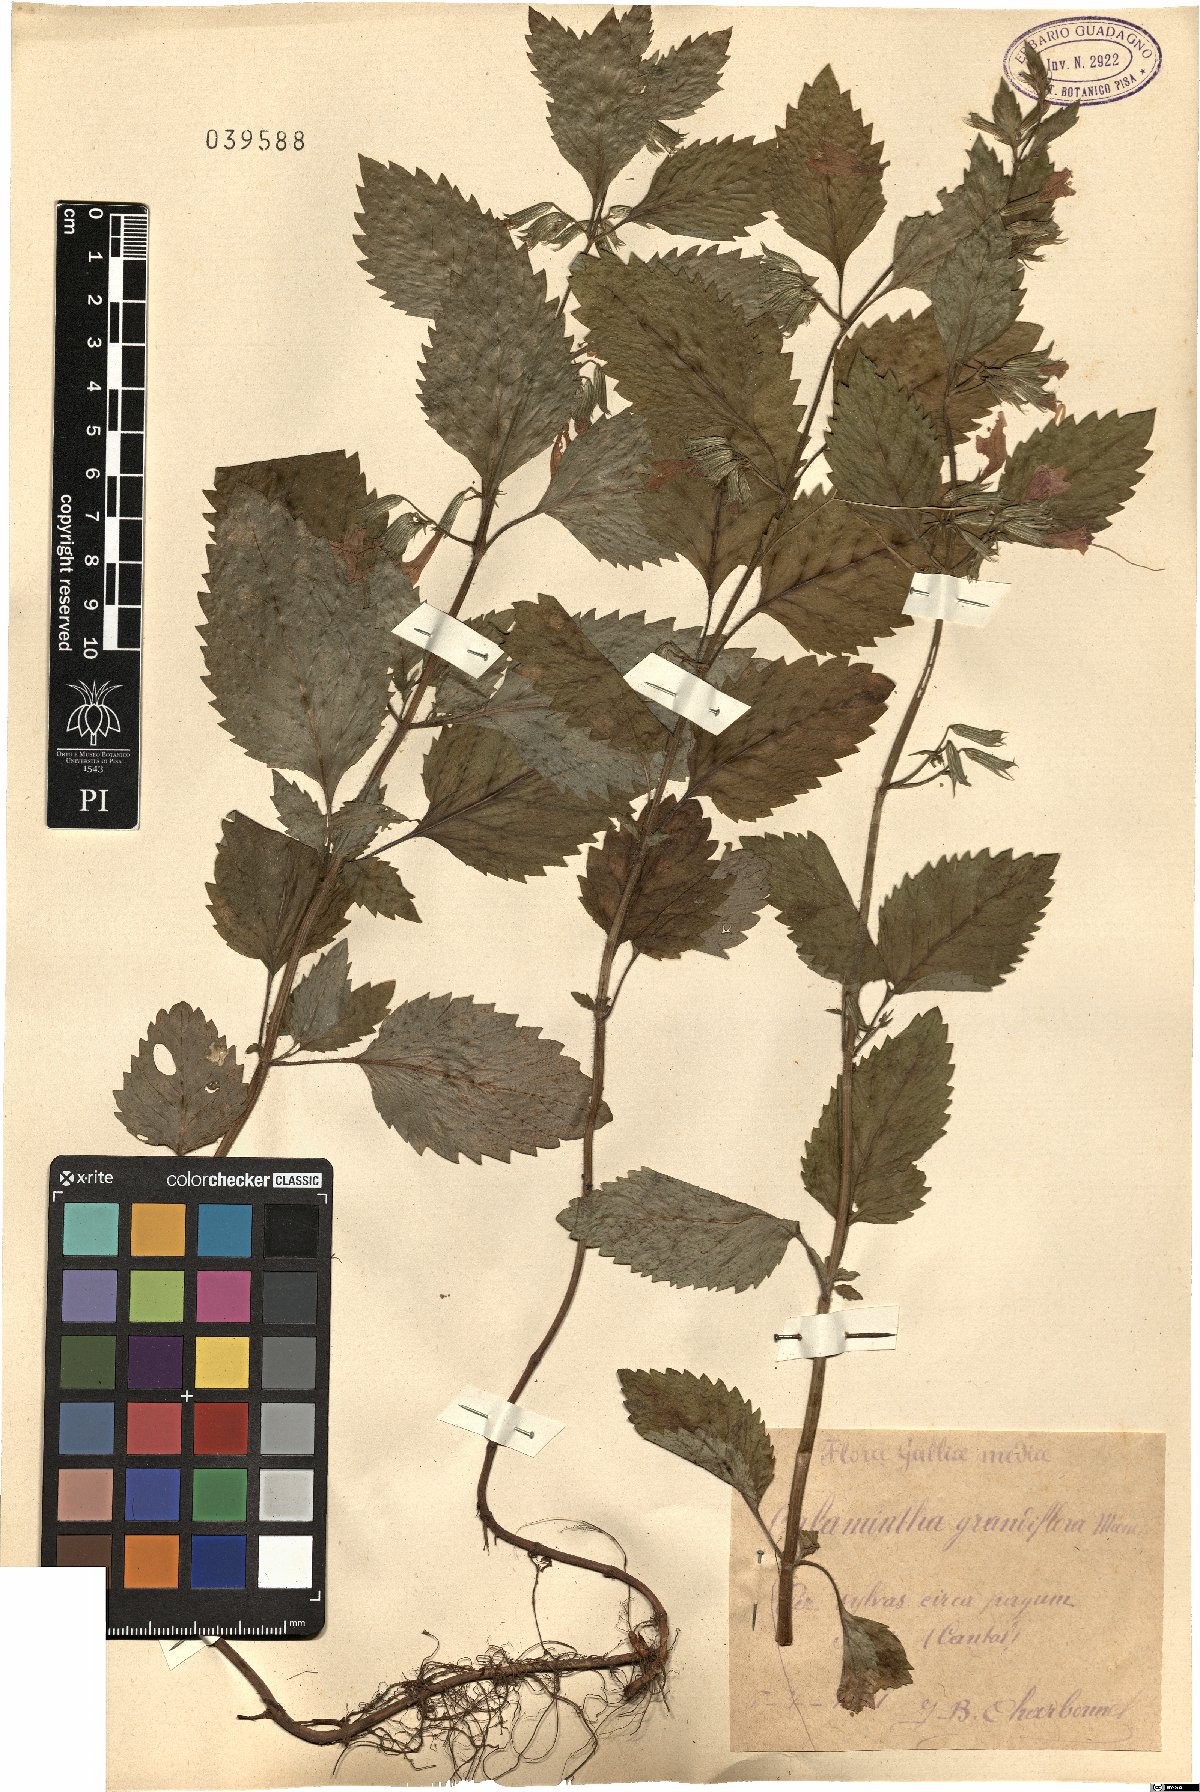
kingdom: Plantae
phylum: Tracheophyta
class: Magnoliopsida
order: Lamiales
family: Lamiaceae
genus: Clinopodium
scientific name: Clinopodium grandiflorum
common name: Greater calamint
